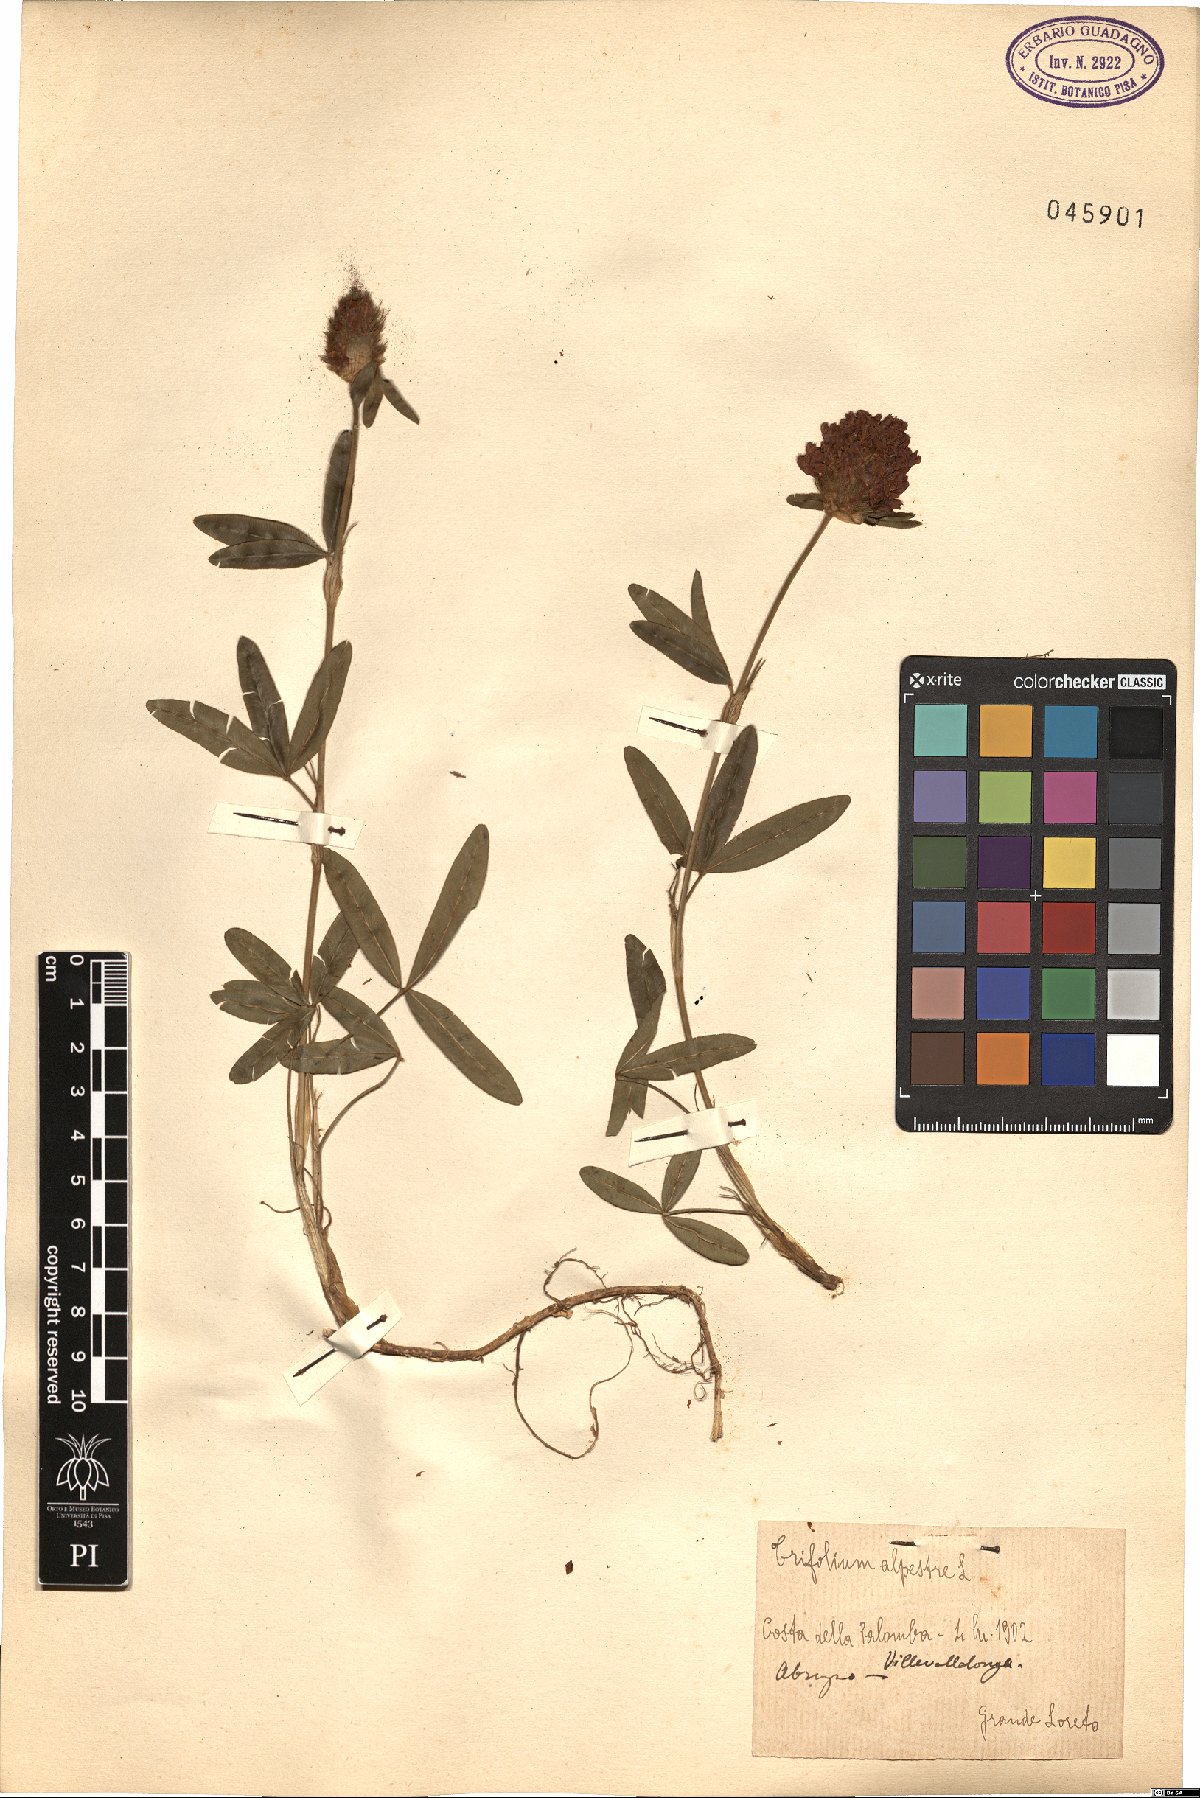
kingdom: Plantae
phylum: Tracheophyta
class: Magnoliopsida
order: Fabales
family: Fabaceae
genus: Trifolium
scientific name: Trifolium alpestre
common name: Owl-head clover
